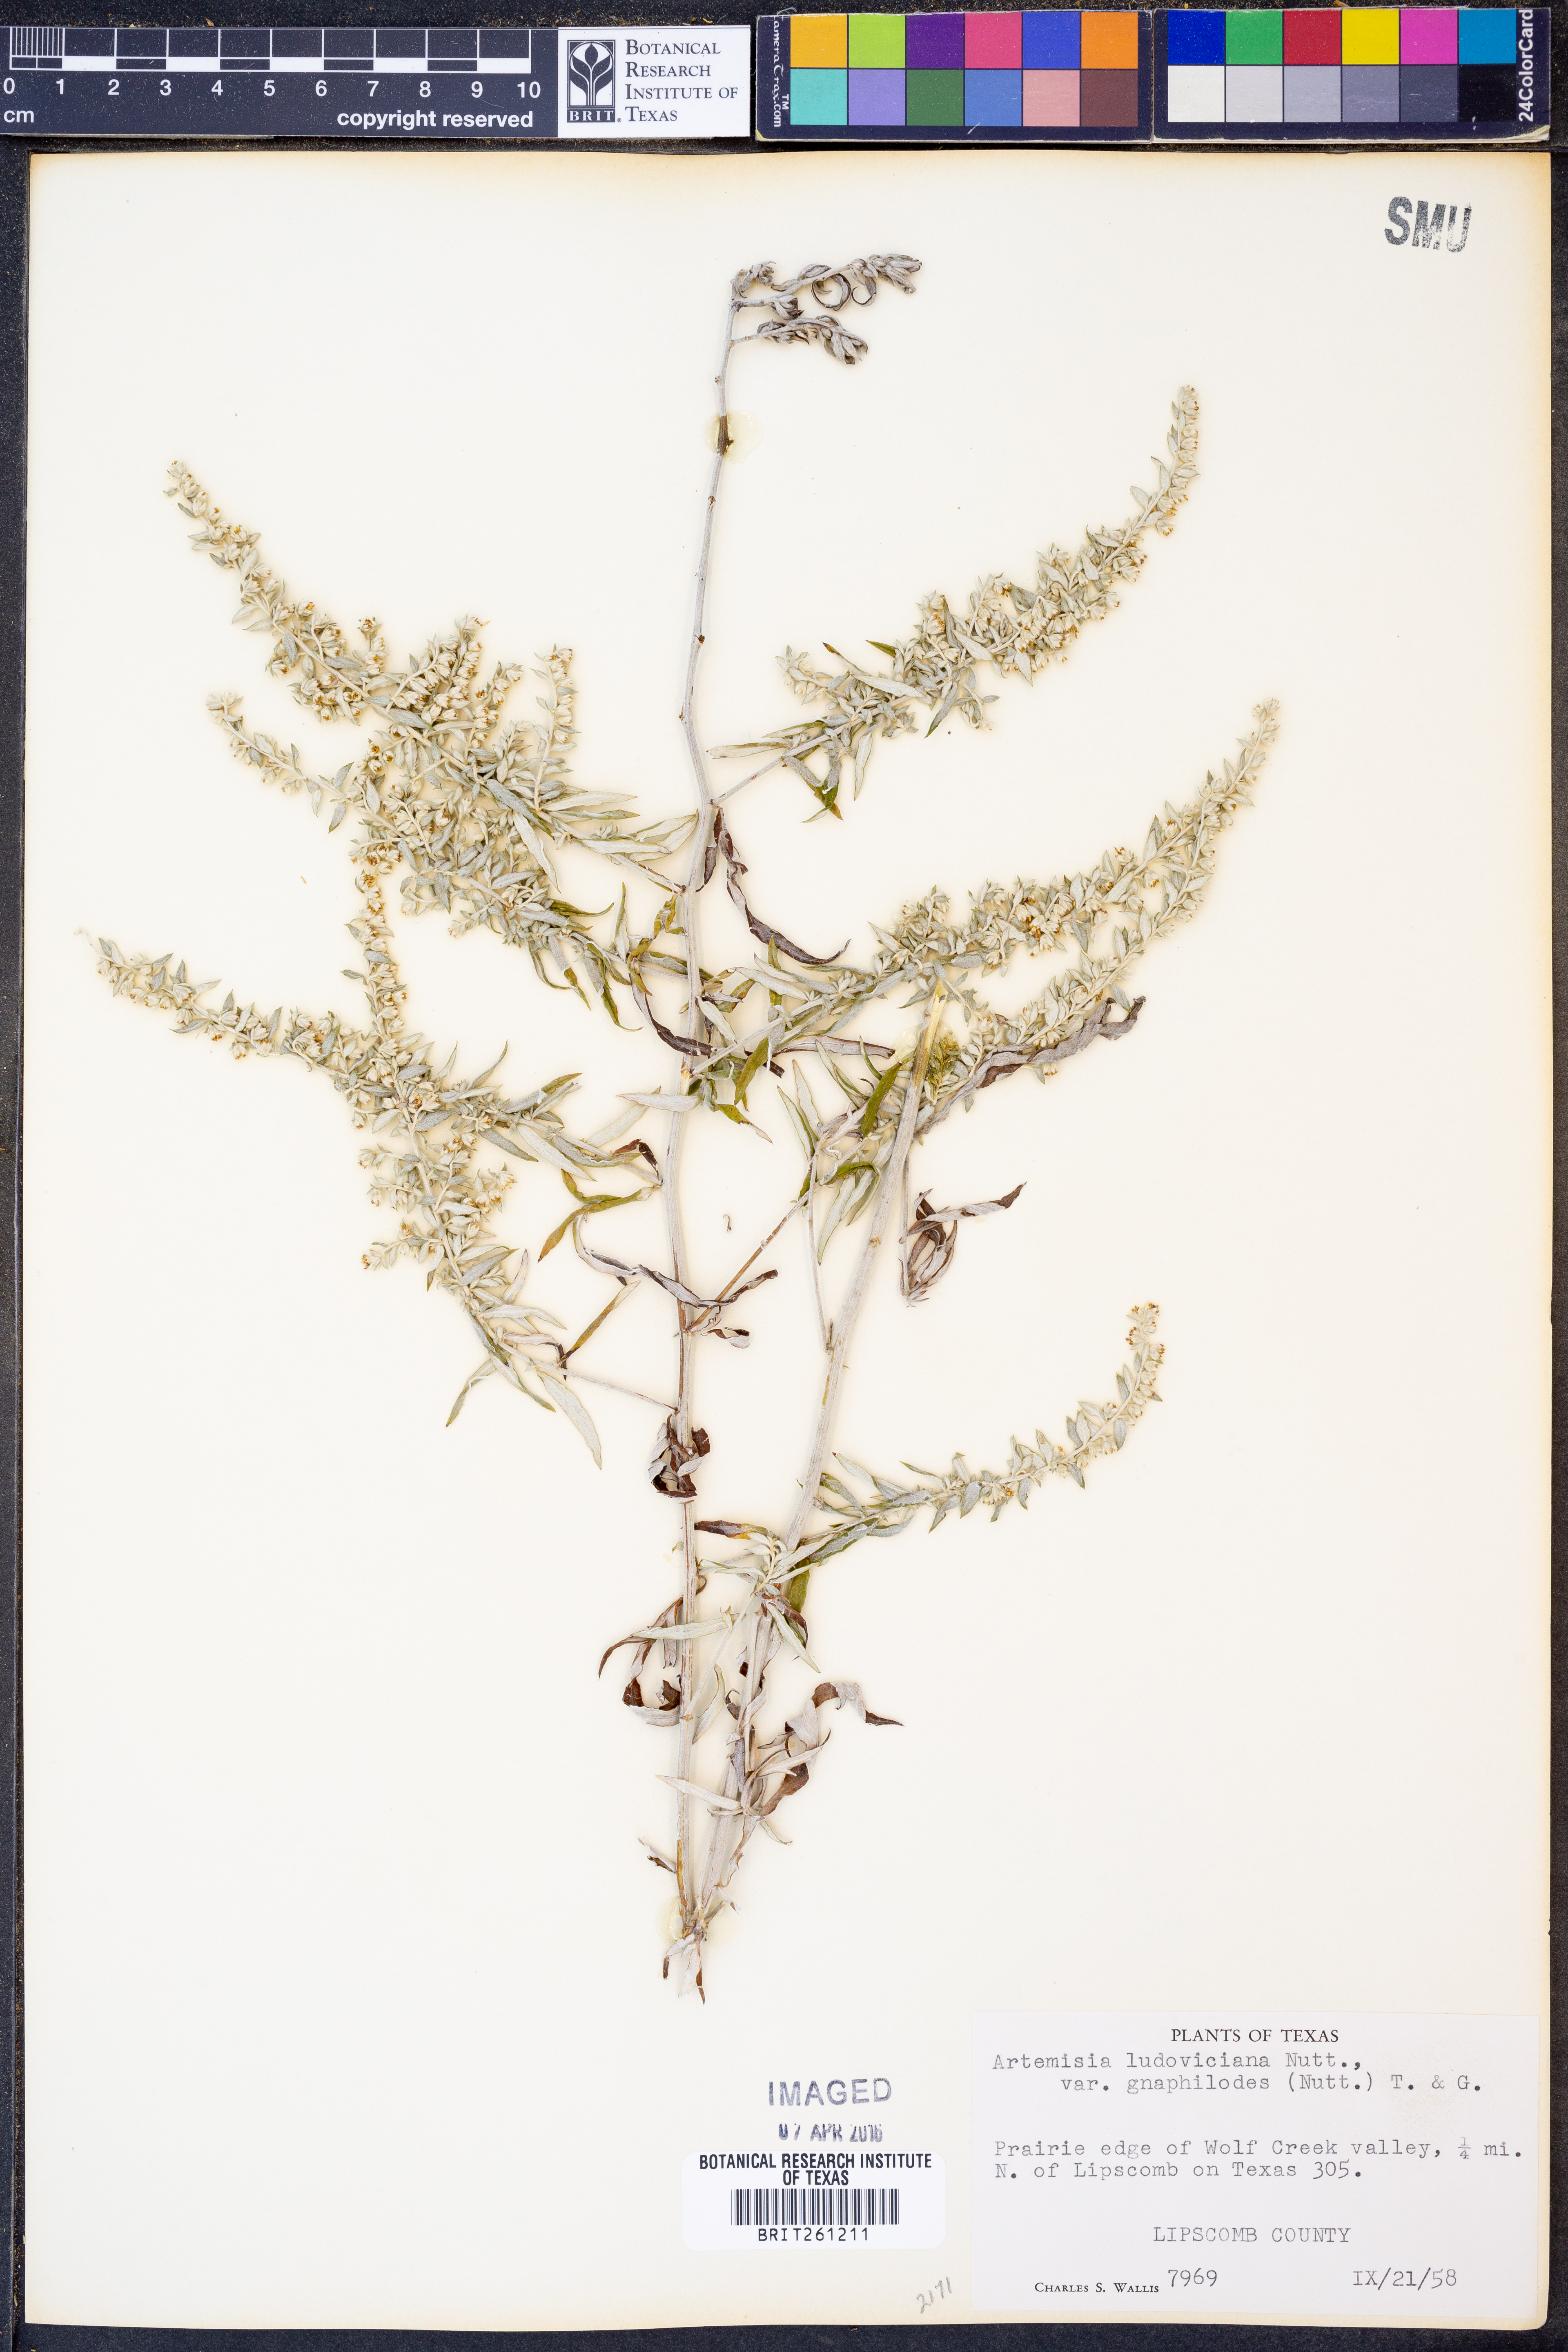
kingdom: Plantae
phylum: Tracheophyta
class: Magnoliopsida
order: Asterales
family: Asteraceae
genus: Artemisia
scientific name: Artemisia ludoviciana
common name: Western mugwort
